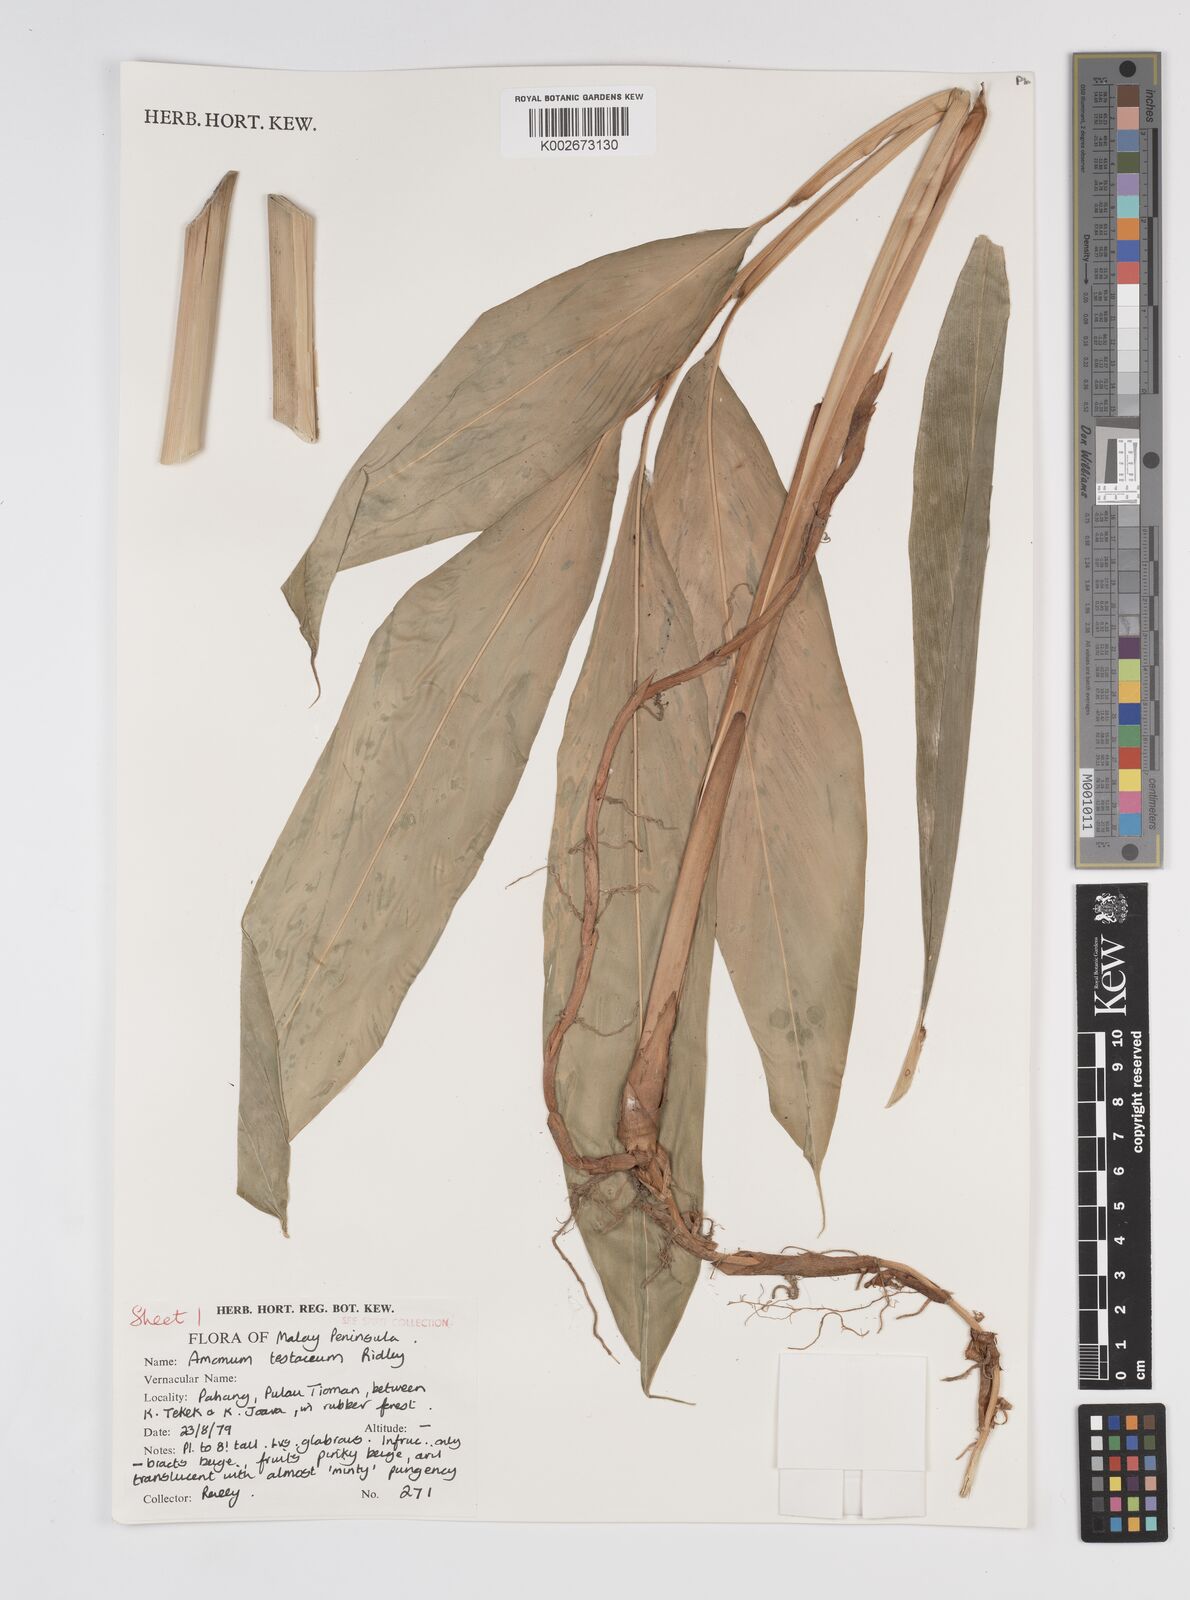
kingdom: Plantae
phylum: Tracheophyta
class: Liliopsida
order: Zingiberales
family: Zingiberaceae
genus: Wurfbainia
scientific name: Wurfbainia testacea
